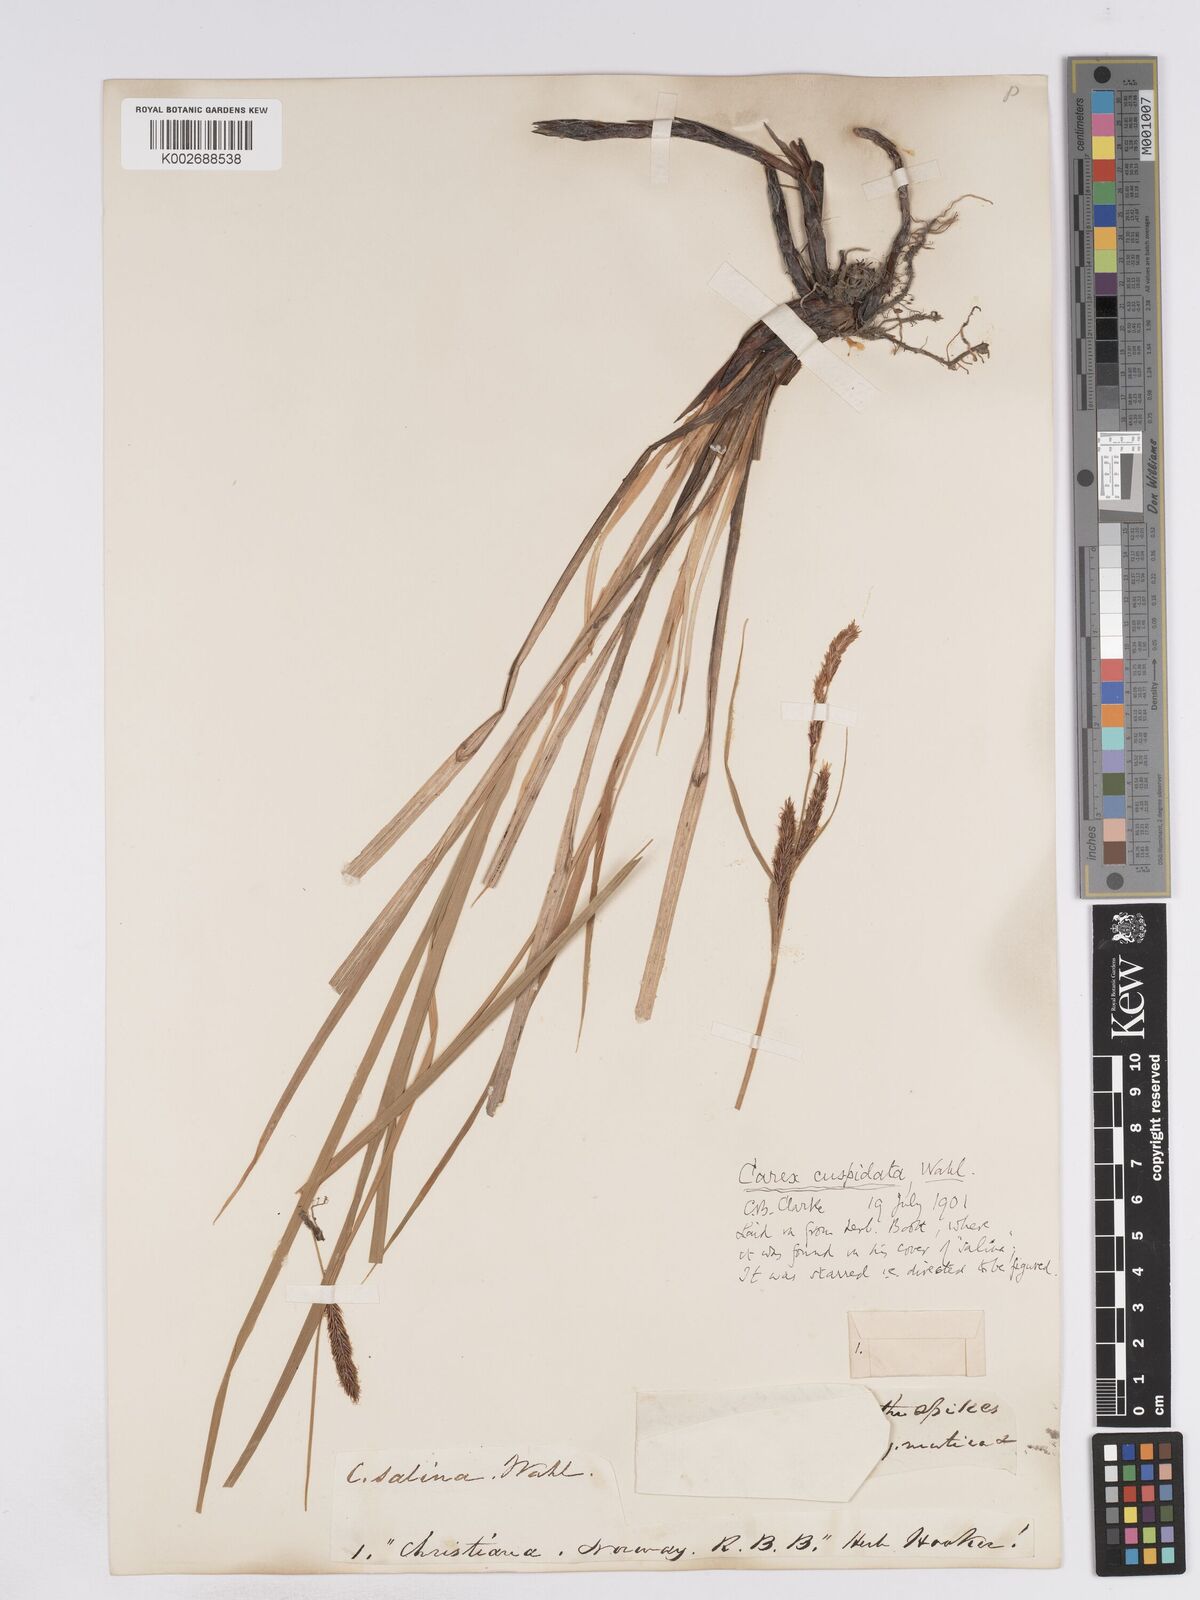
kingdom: Plantae
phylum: Tracheophyta
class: Liliopsida
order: Poales
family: Cyperaceae
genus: Carex
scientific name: Carex recta
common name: Estuarine sedge
